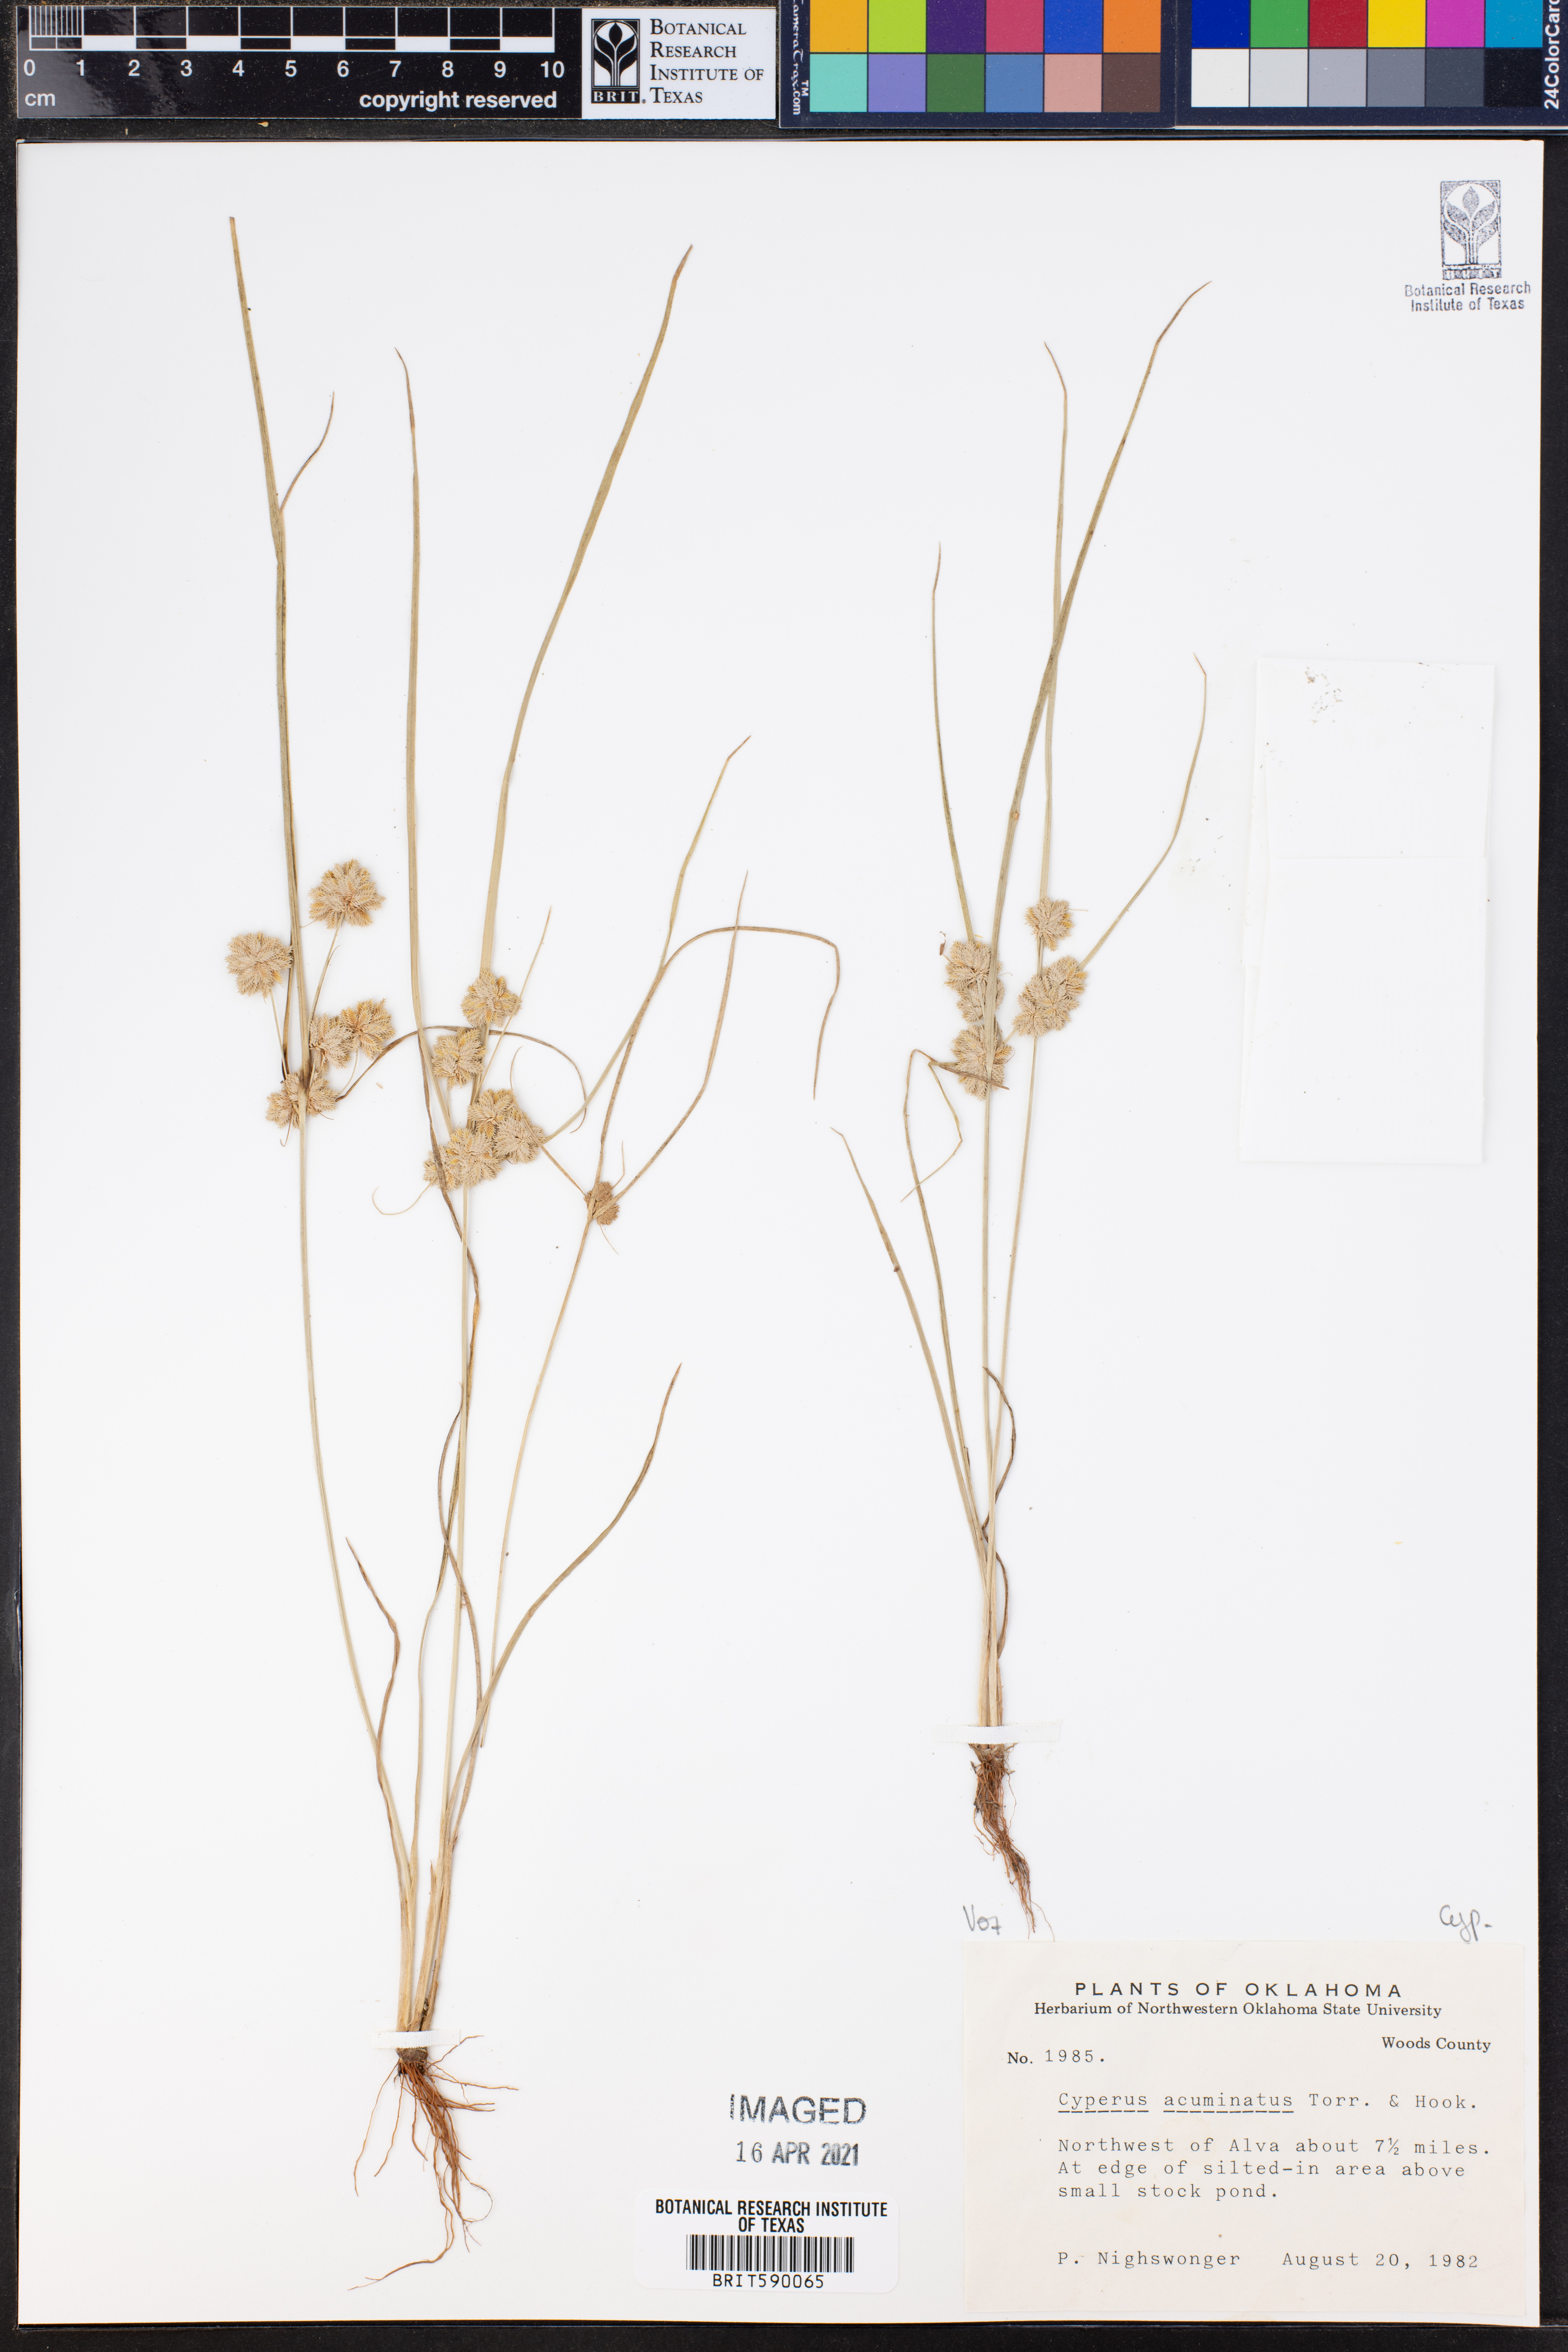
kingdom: Plantae
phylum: Tracheophyta
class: Liliopsida
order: Poales
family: Cyperaceae
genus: Cyperus
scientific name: Cyperus acuminatus
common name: Short-pointed cyperus
